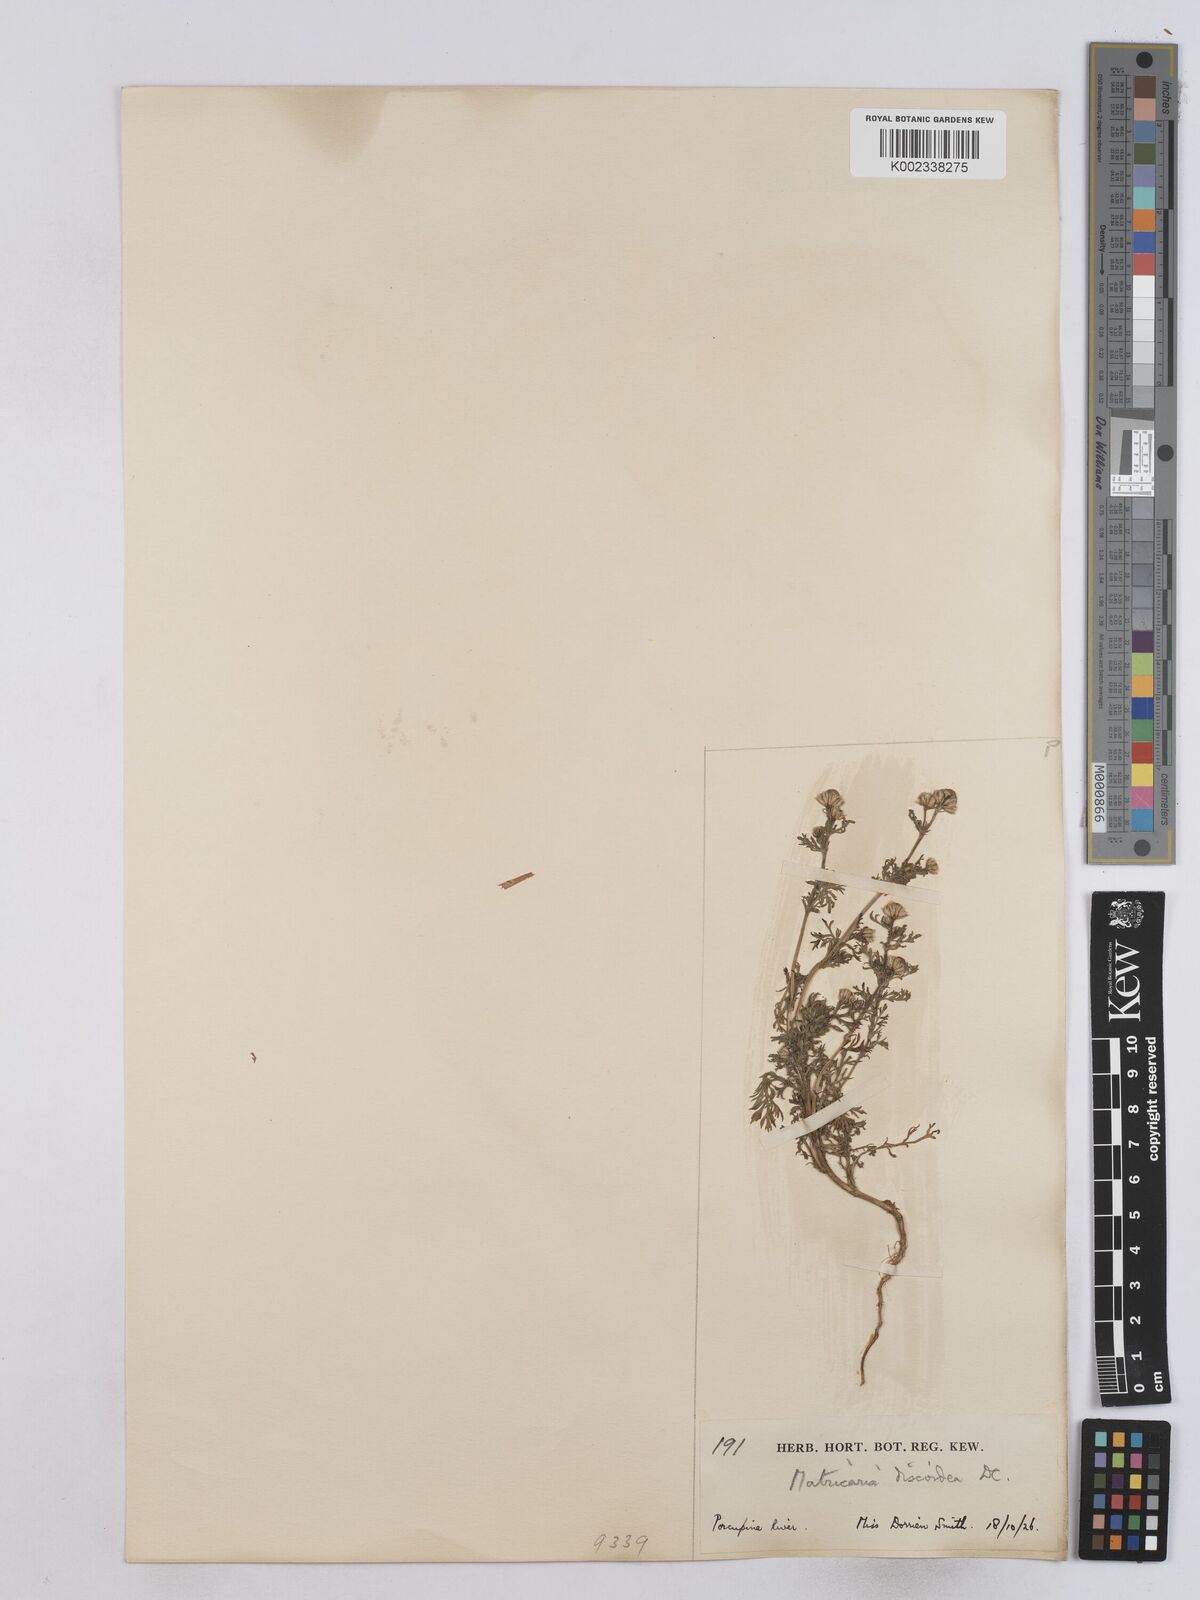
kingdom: Plantae
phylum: Tracheophyta
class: Magnoliopsida
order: Asterales
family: Asteraceae
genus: Matricaria
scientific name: Matricaria discoidea
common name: Disc mayweed
